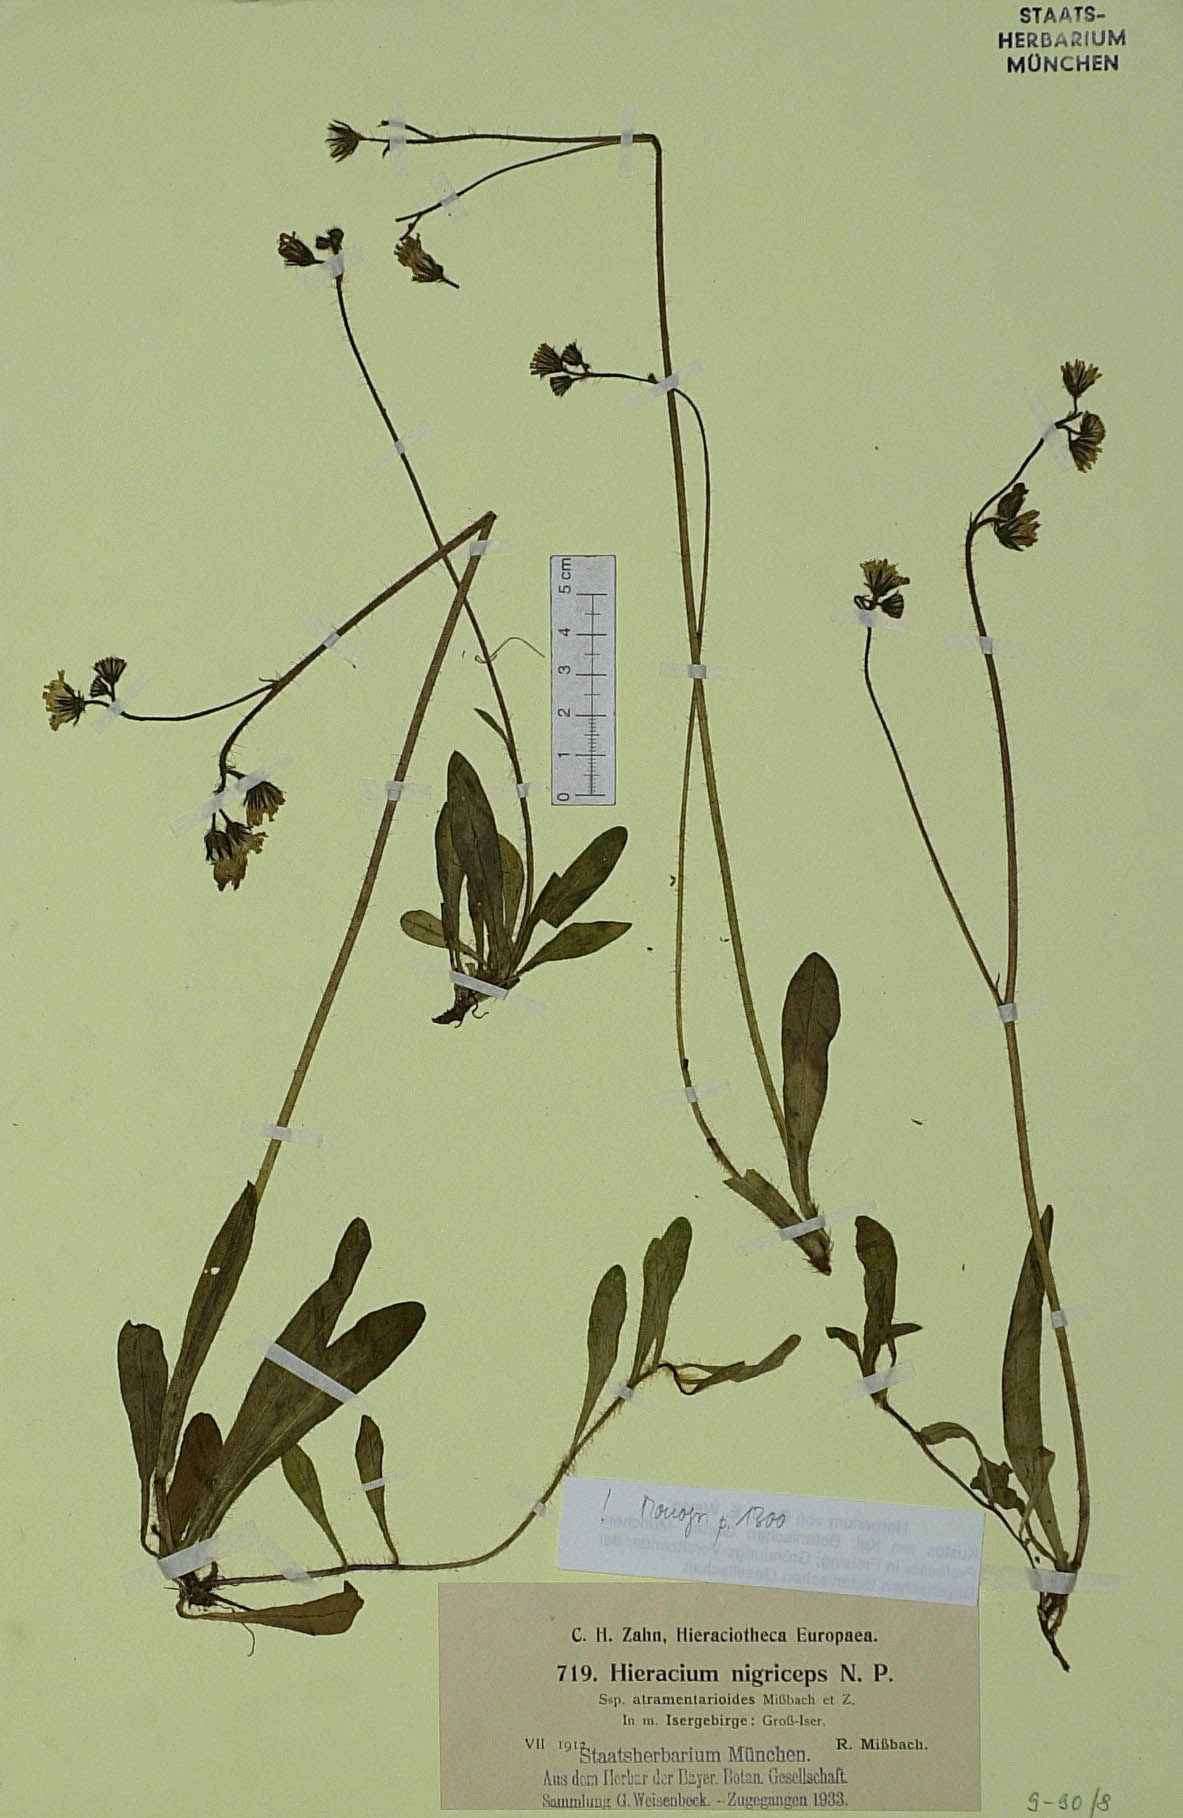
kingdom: Plantae
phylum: Tracheophyta
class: Magnoliopsida
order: Asterales
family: Asteraceae
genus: Pilosella
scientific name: Pilosella iserana
